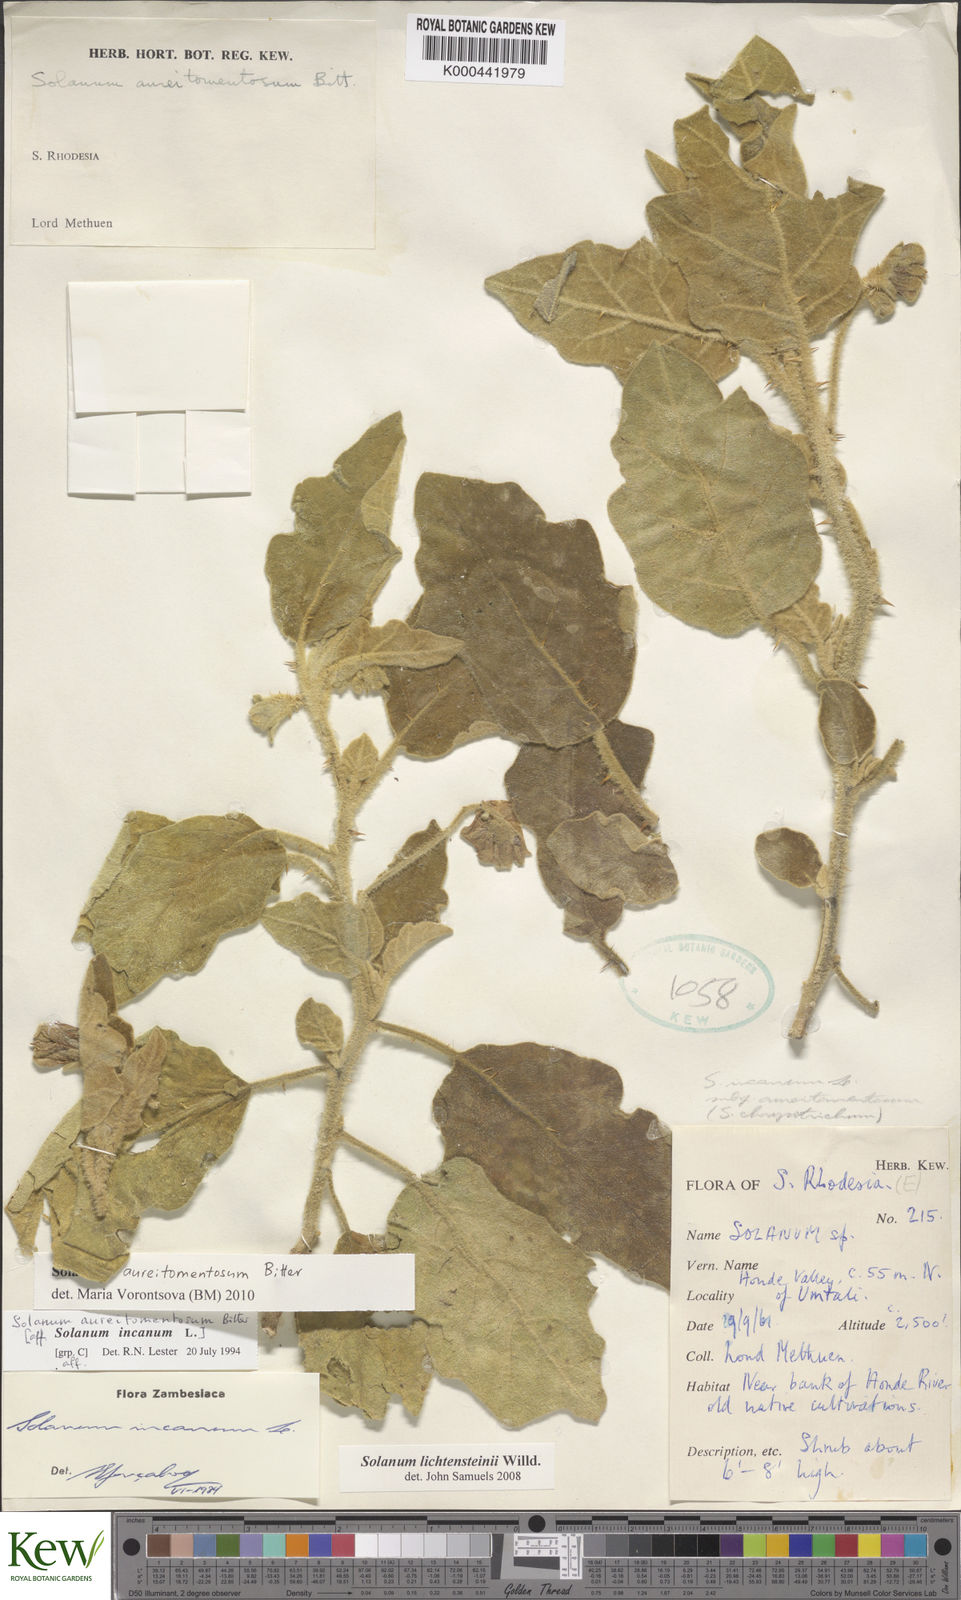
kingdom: Plantae
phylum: Tracheophyta
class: Magnoliopsida
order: Solanales
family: Solanaceae
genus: Solanum
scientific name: Solanum aureitomentosum
